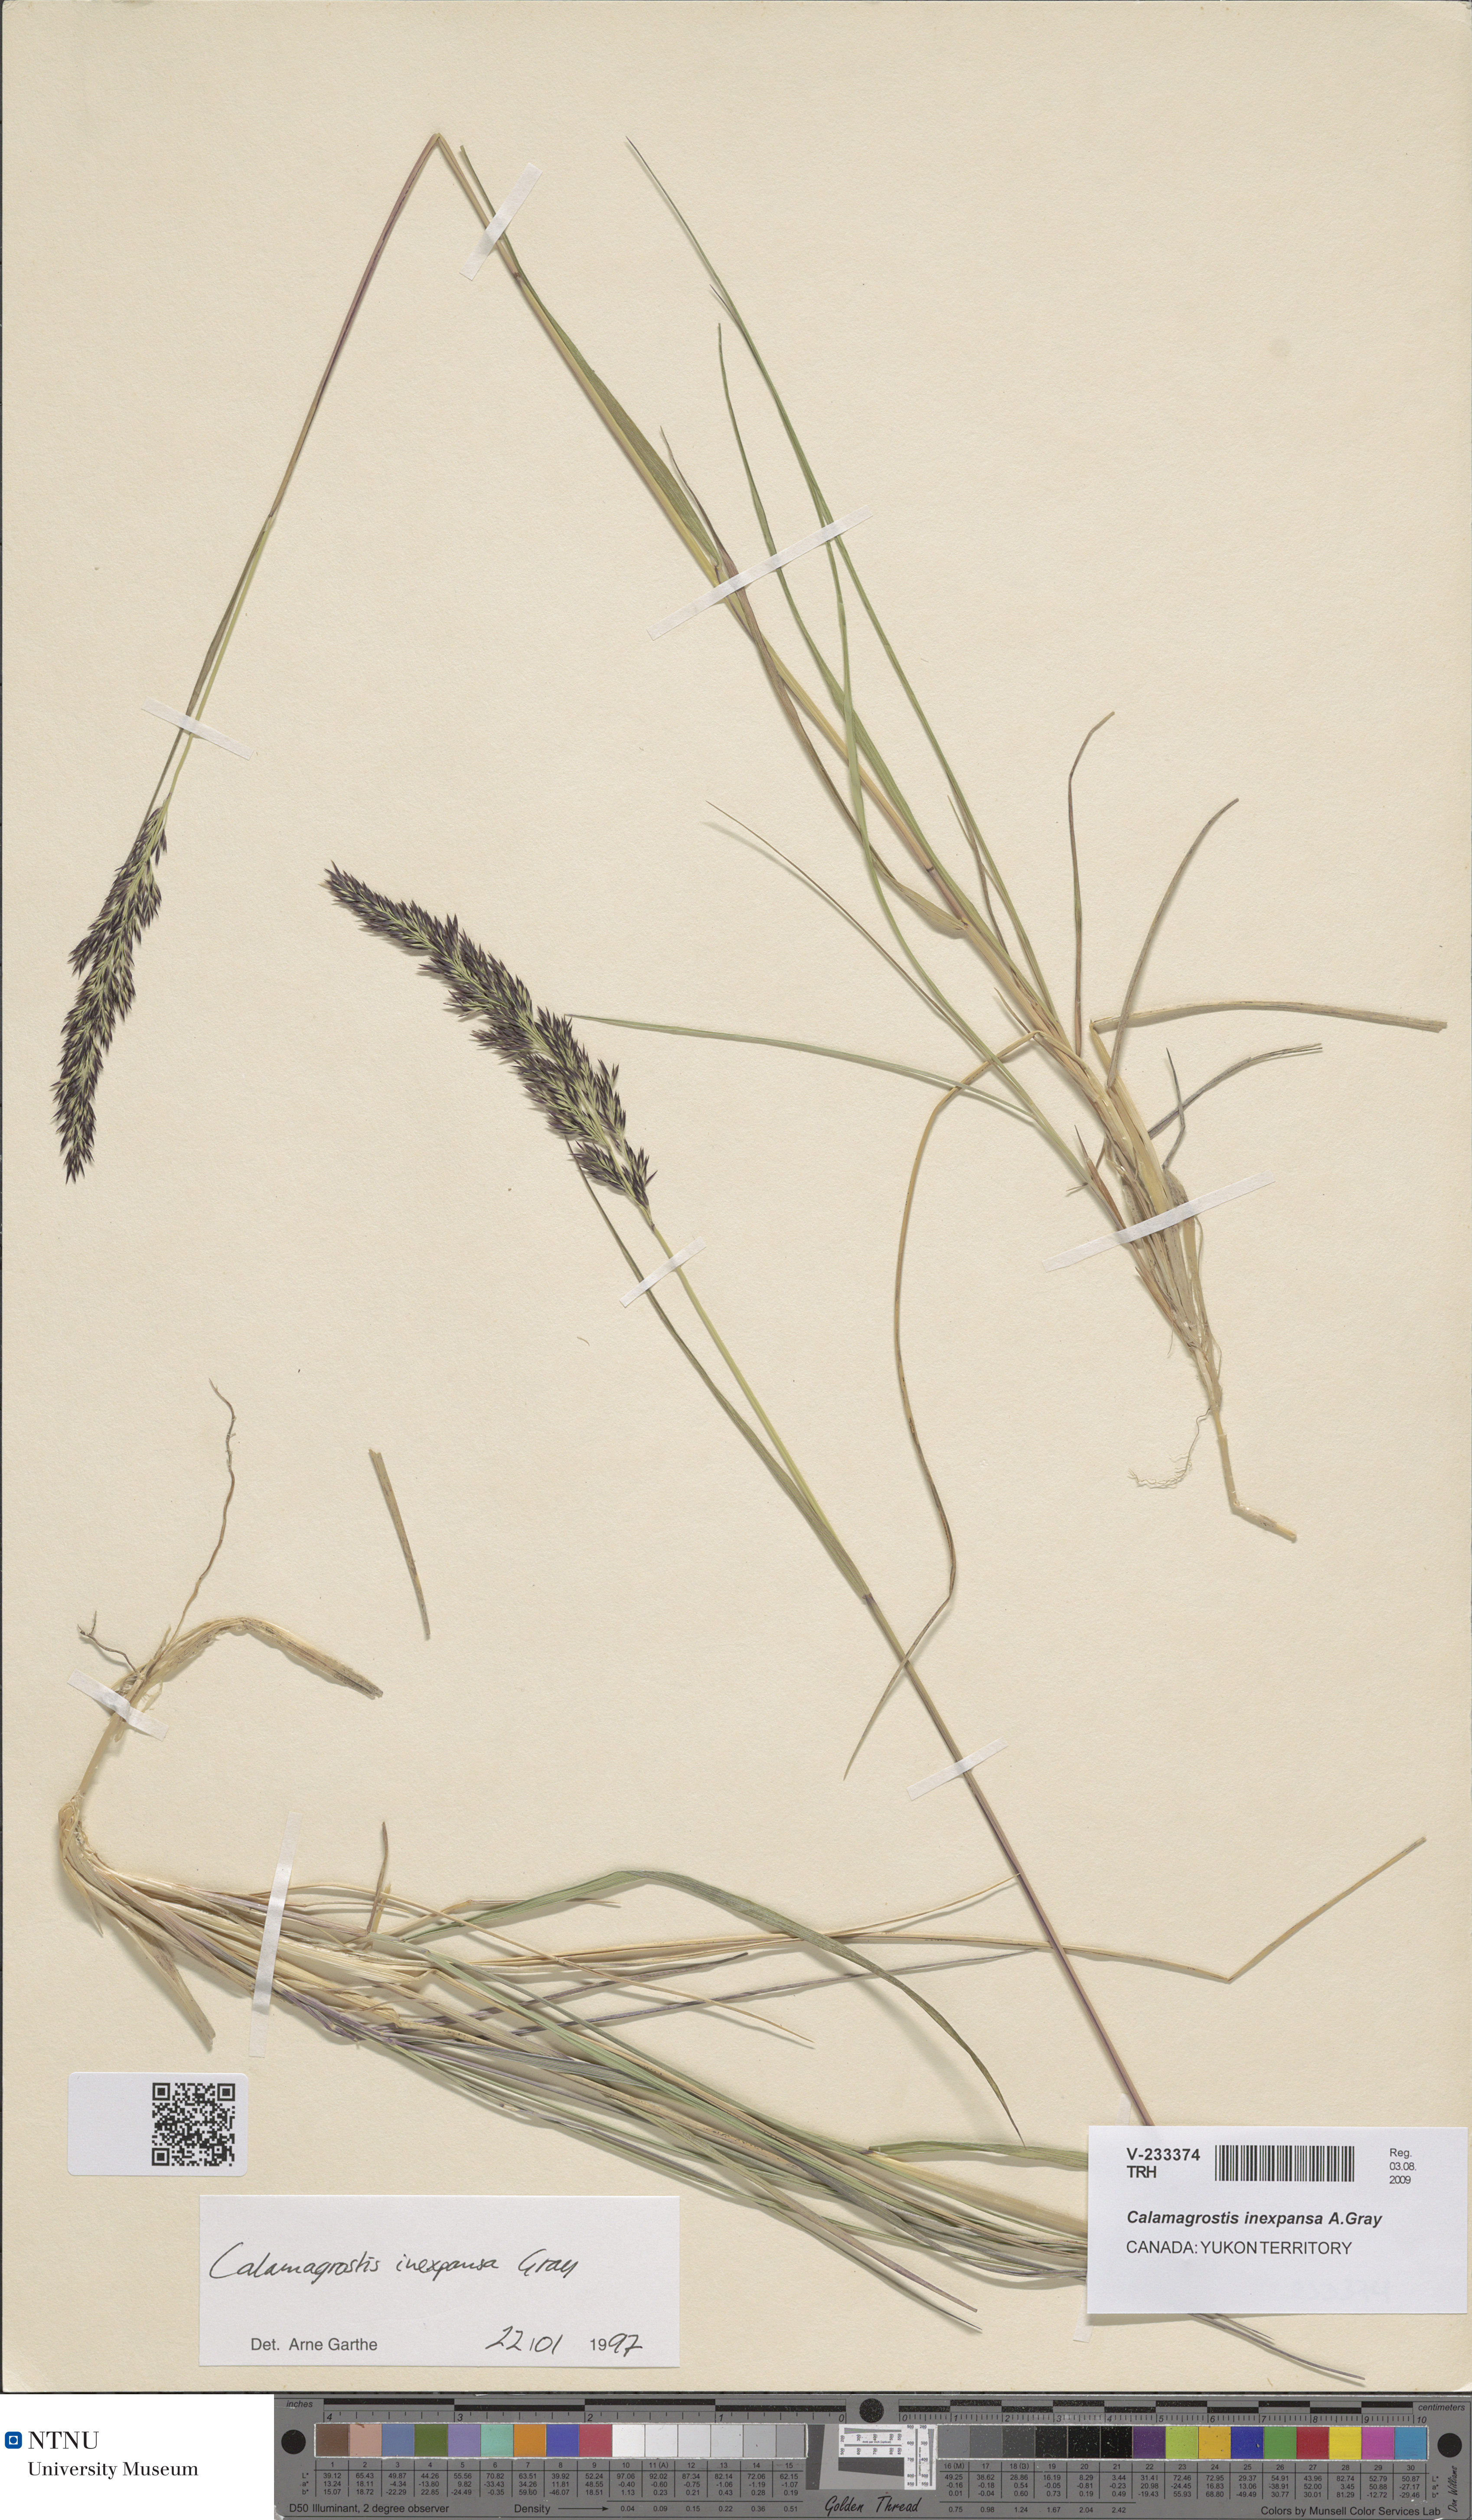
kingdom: Plantae
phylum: Tracheophyta
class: Liliopsida
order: Poales
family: Poaceae
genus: Calamagrostis
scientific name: Calamagrostis inexpansa
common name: Northern reedgrass
